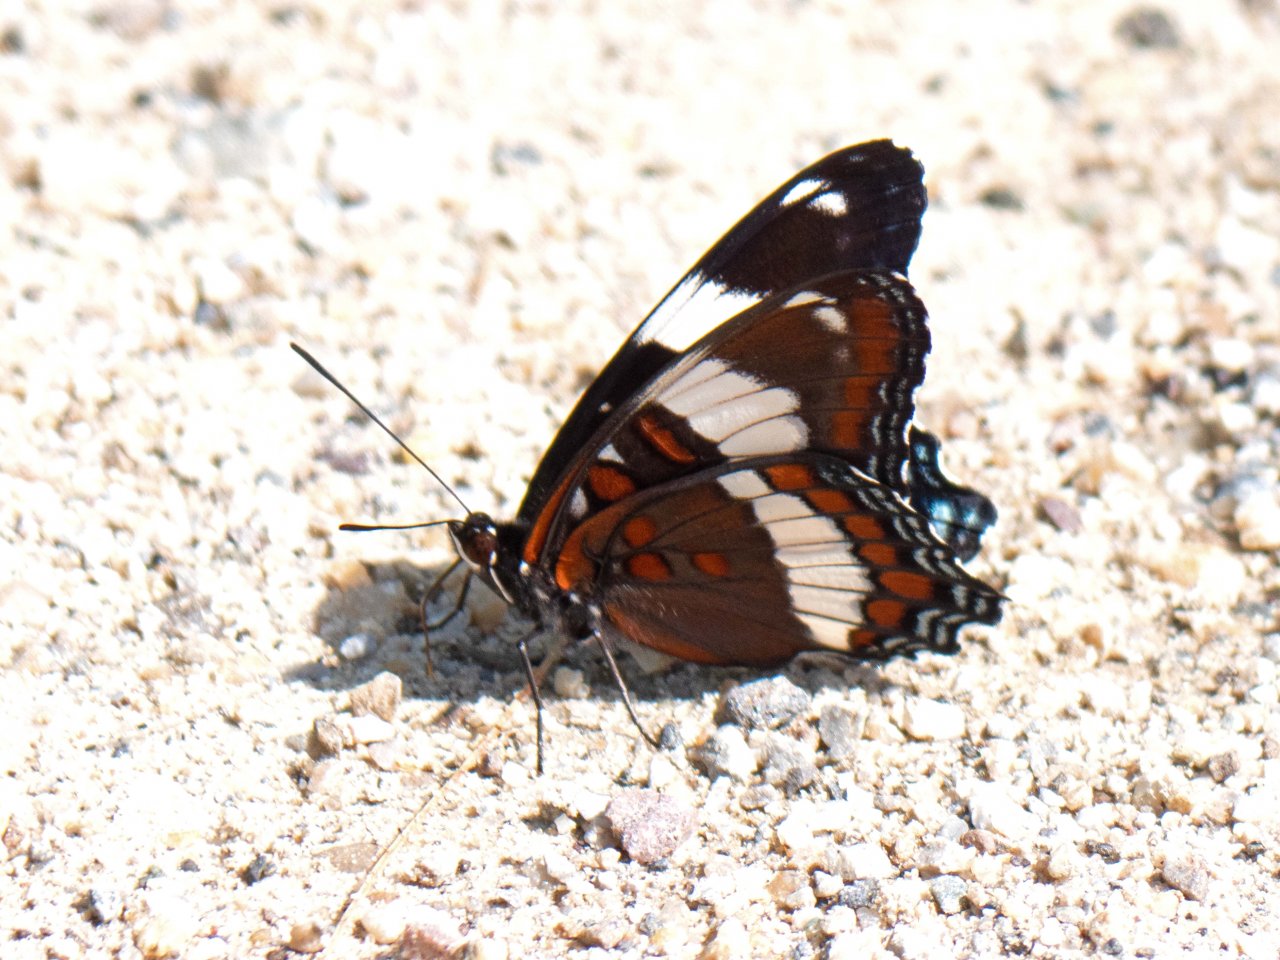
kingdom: Animalia
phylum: Arthropoda
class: Insecta
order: Lepidoptera
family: Nymphalidae
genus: Limenitis
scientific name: Limenitis arthemis
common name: Red-spotted Admiral
